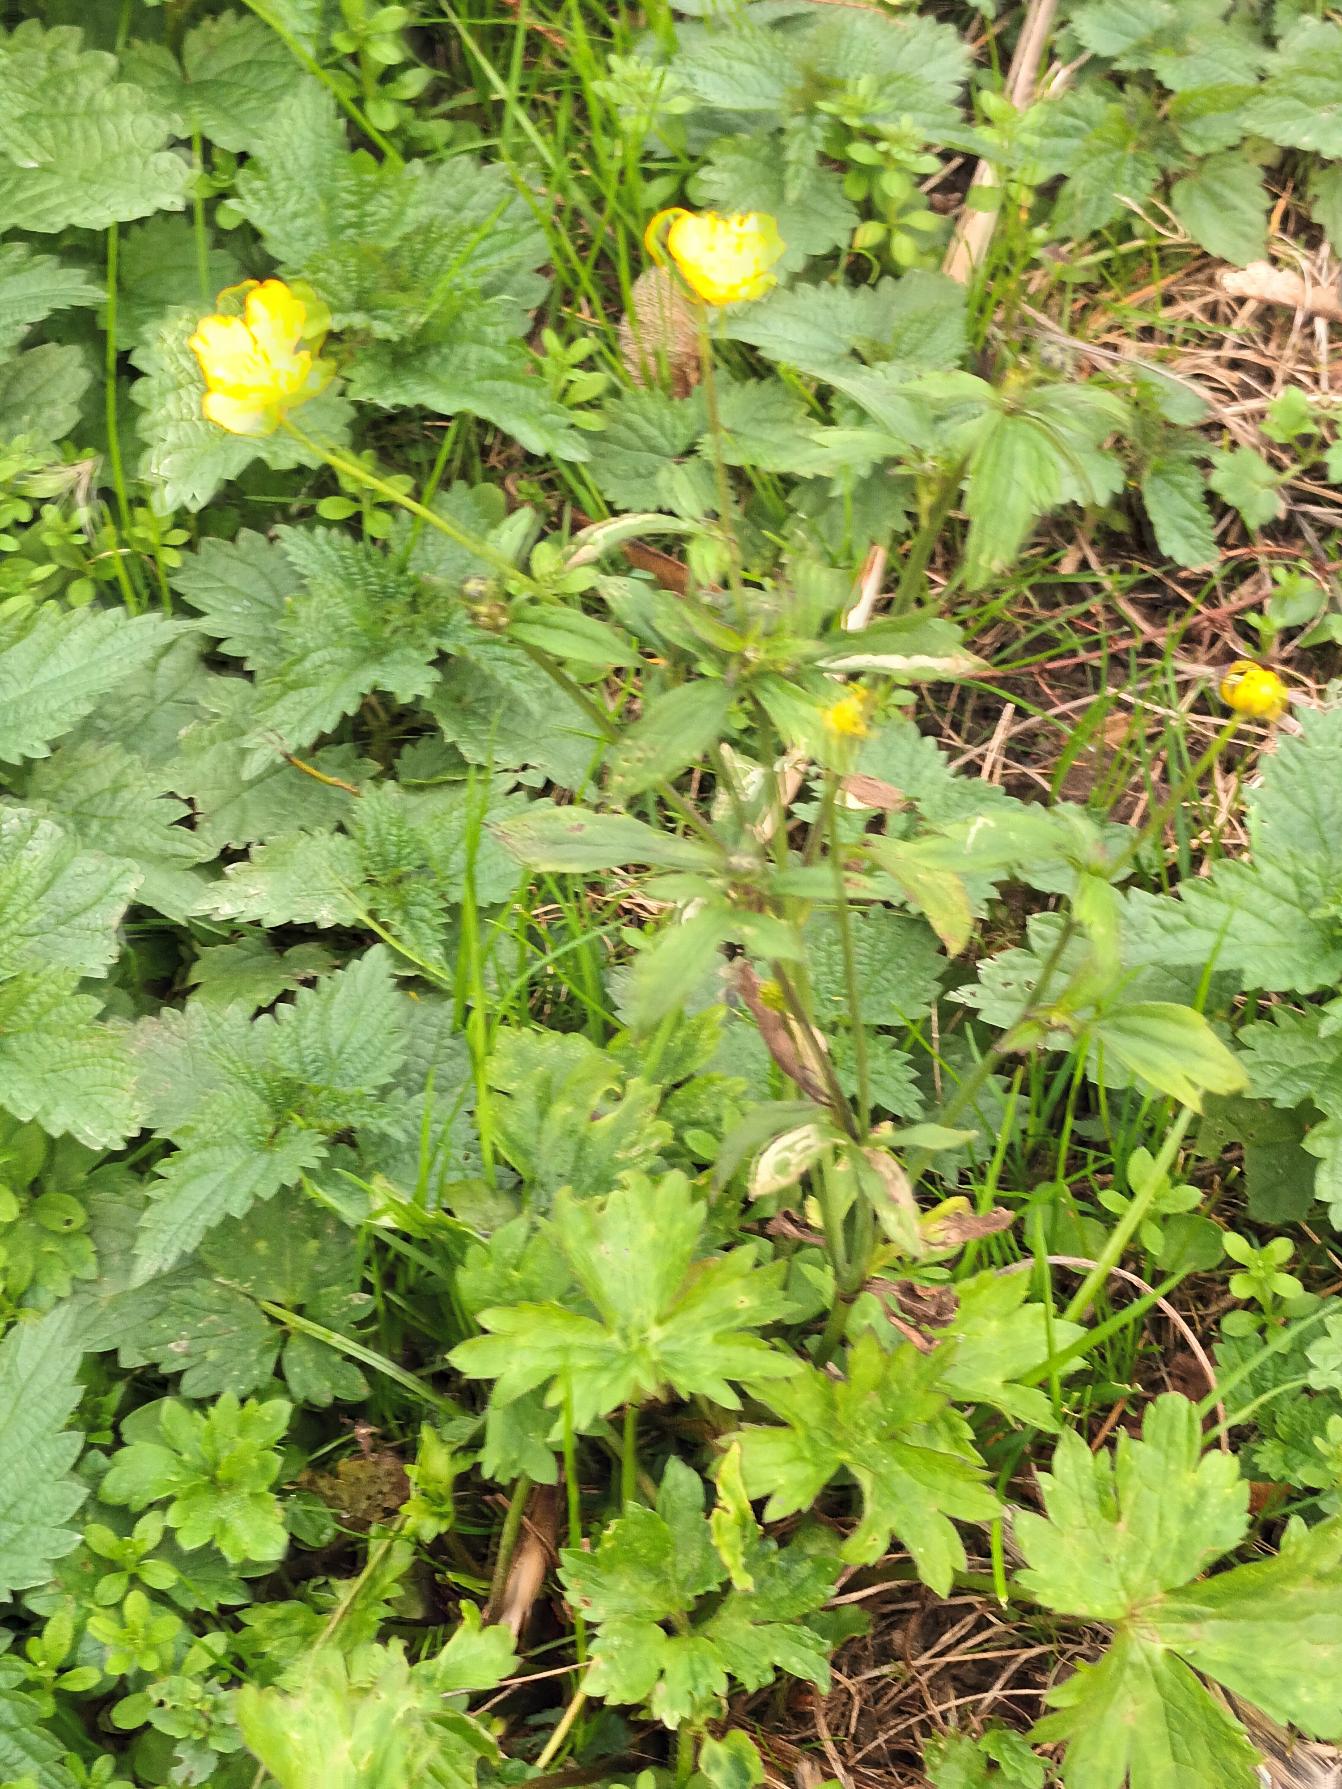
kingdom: Plantae
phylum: Tracheophyta
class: Magnoliopsida
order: Ranunculales
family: Ranunculaceae
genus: Ranunculus
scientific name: Ranunculus acris
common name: Bidende ranunkel
